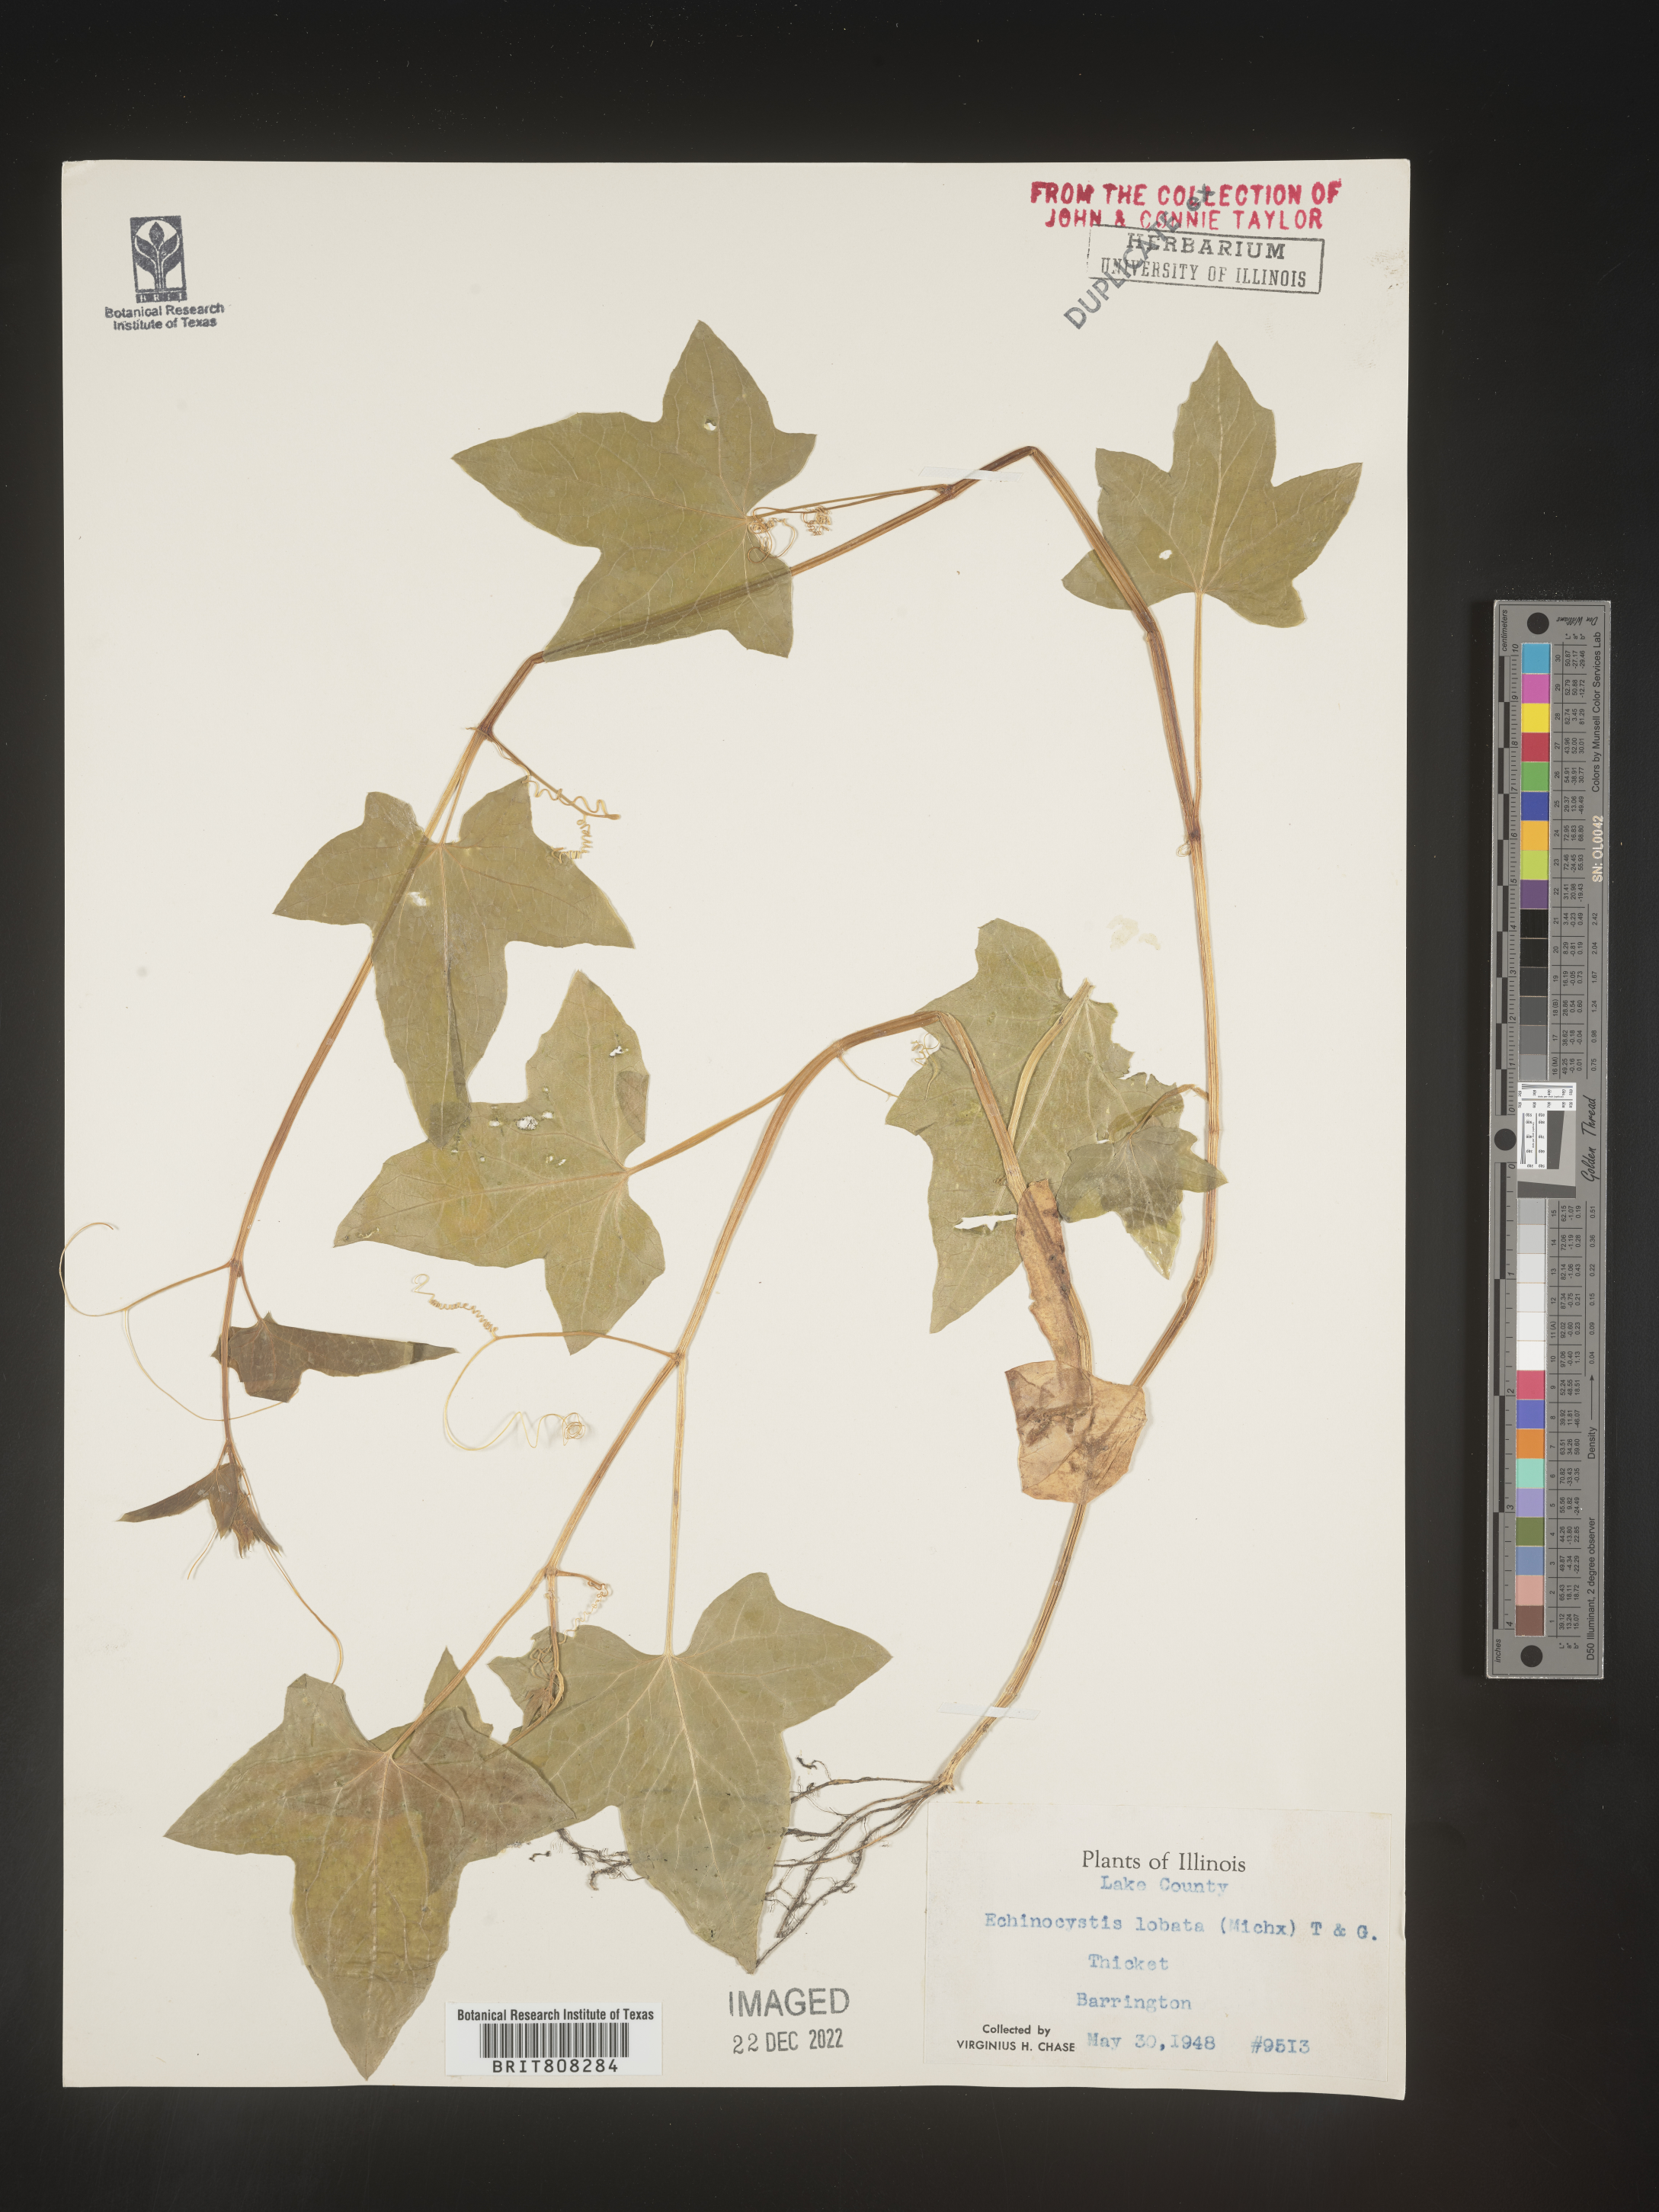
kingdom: Plantae
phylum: Tracheophyta
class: Magnoliopsida
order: Cucurbitales
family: Cucurbitaceae
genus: Echinocystis
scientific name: Echinocystis
